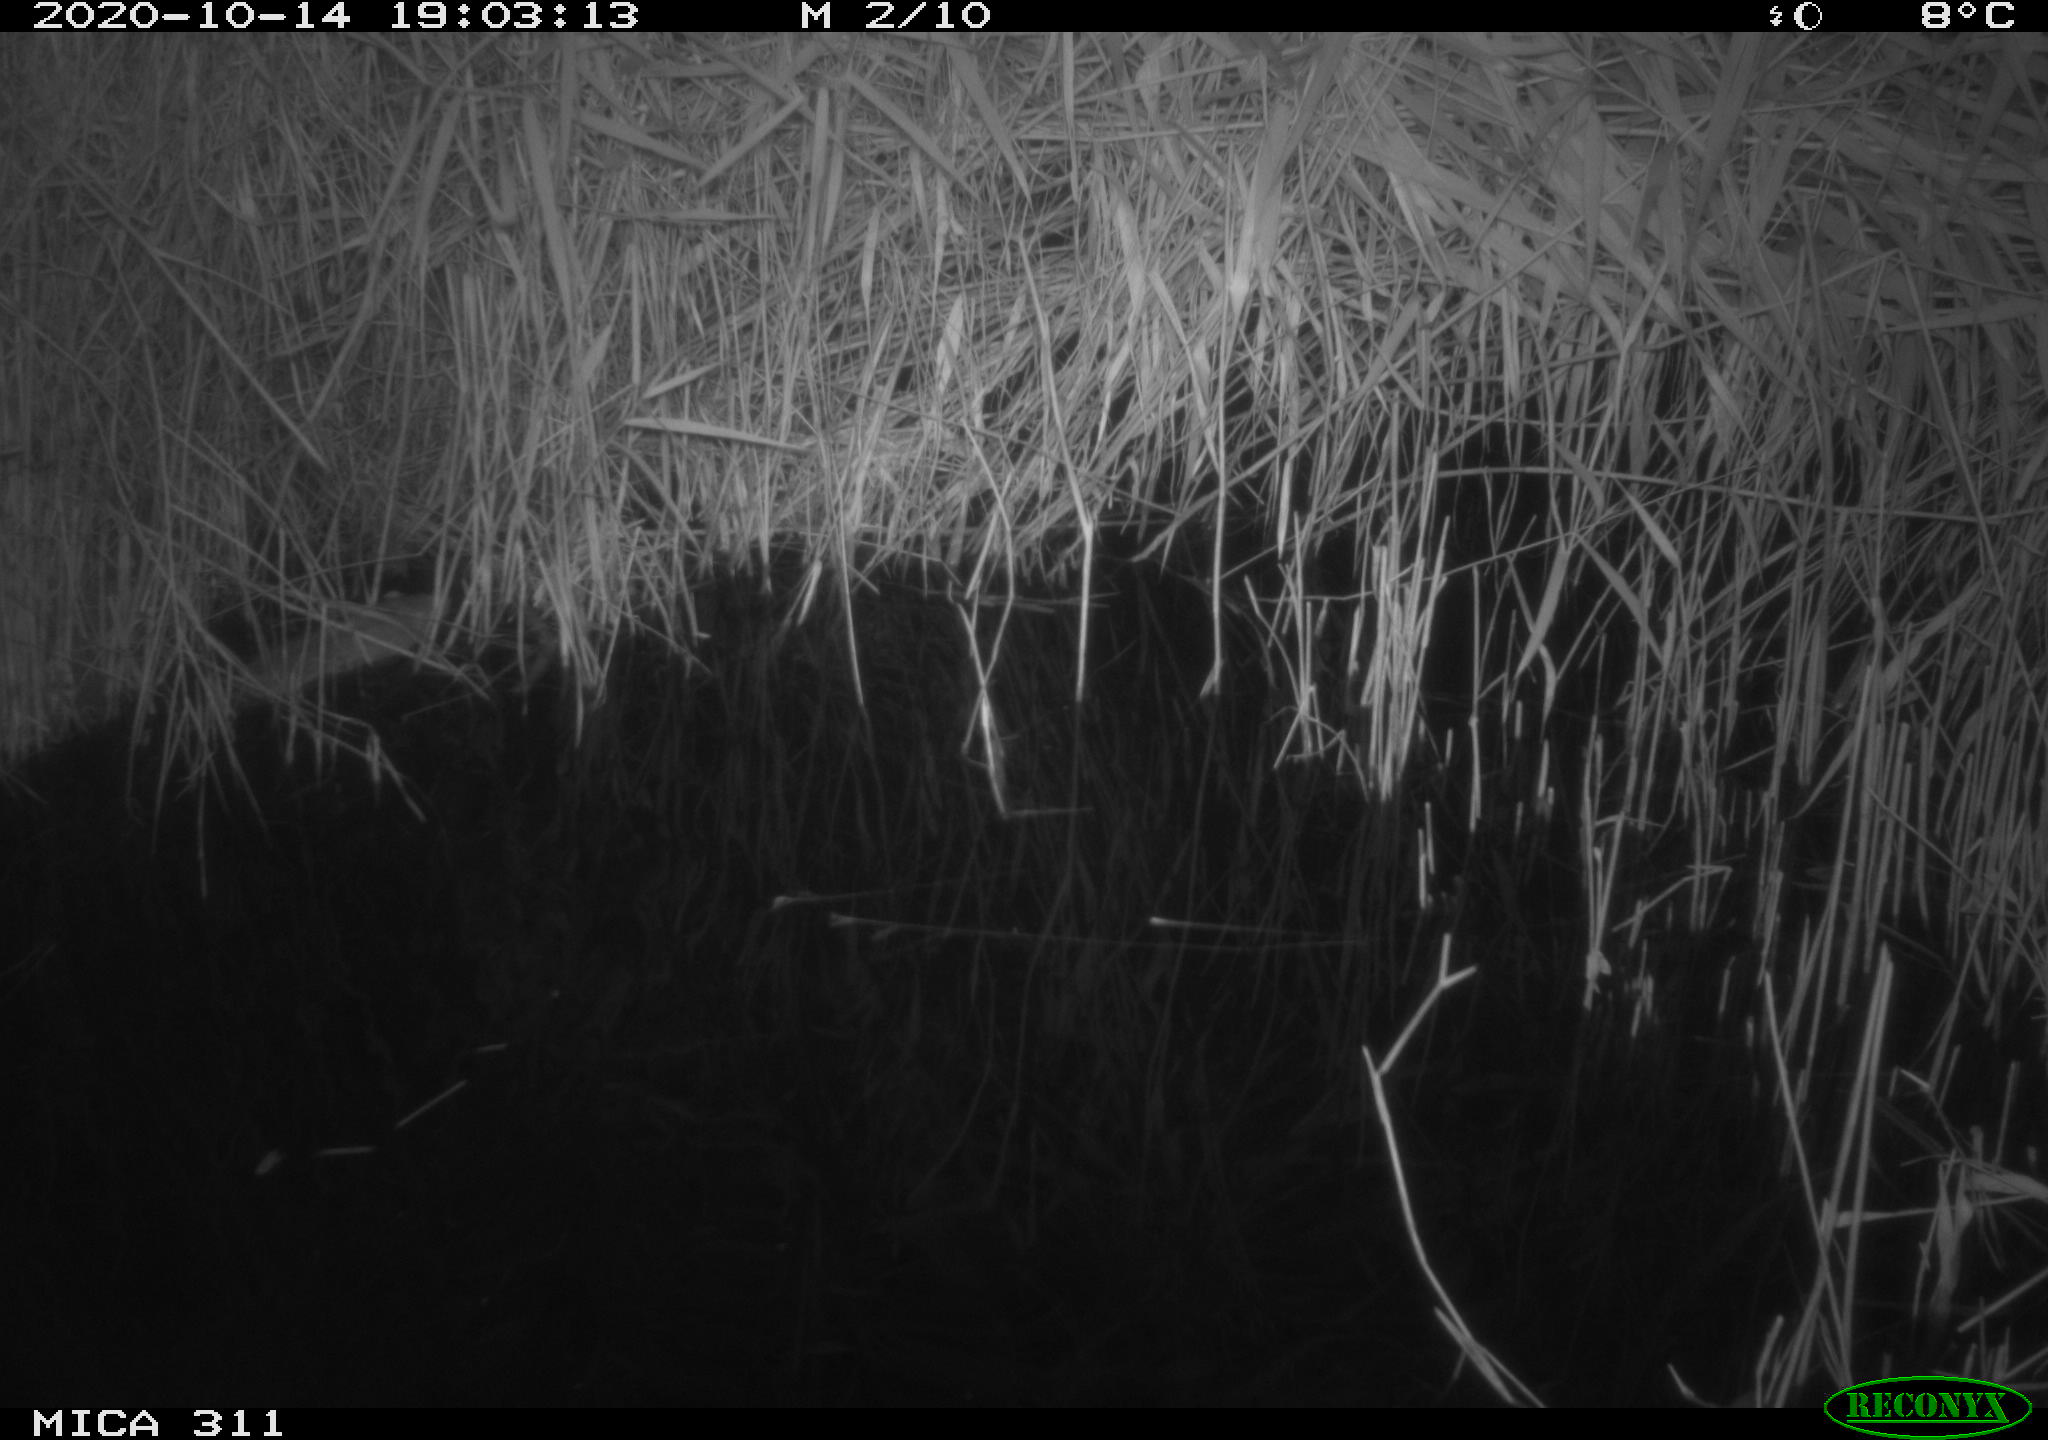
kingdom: Animalia
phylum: Chordata
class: Mammalia
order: Rodentia
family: Muridae
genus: Rattus
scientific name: Rattus norvegicus
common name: Brown rat
